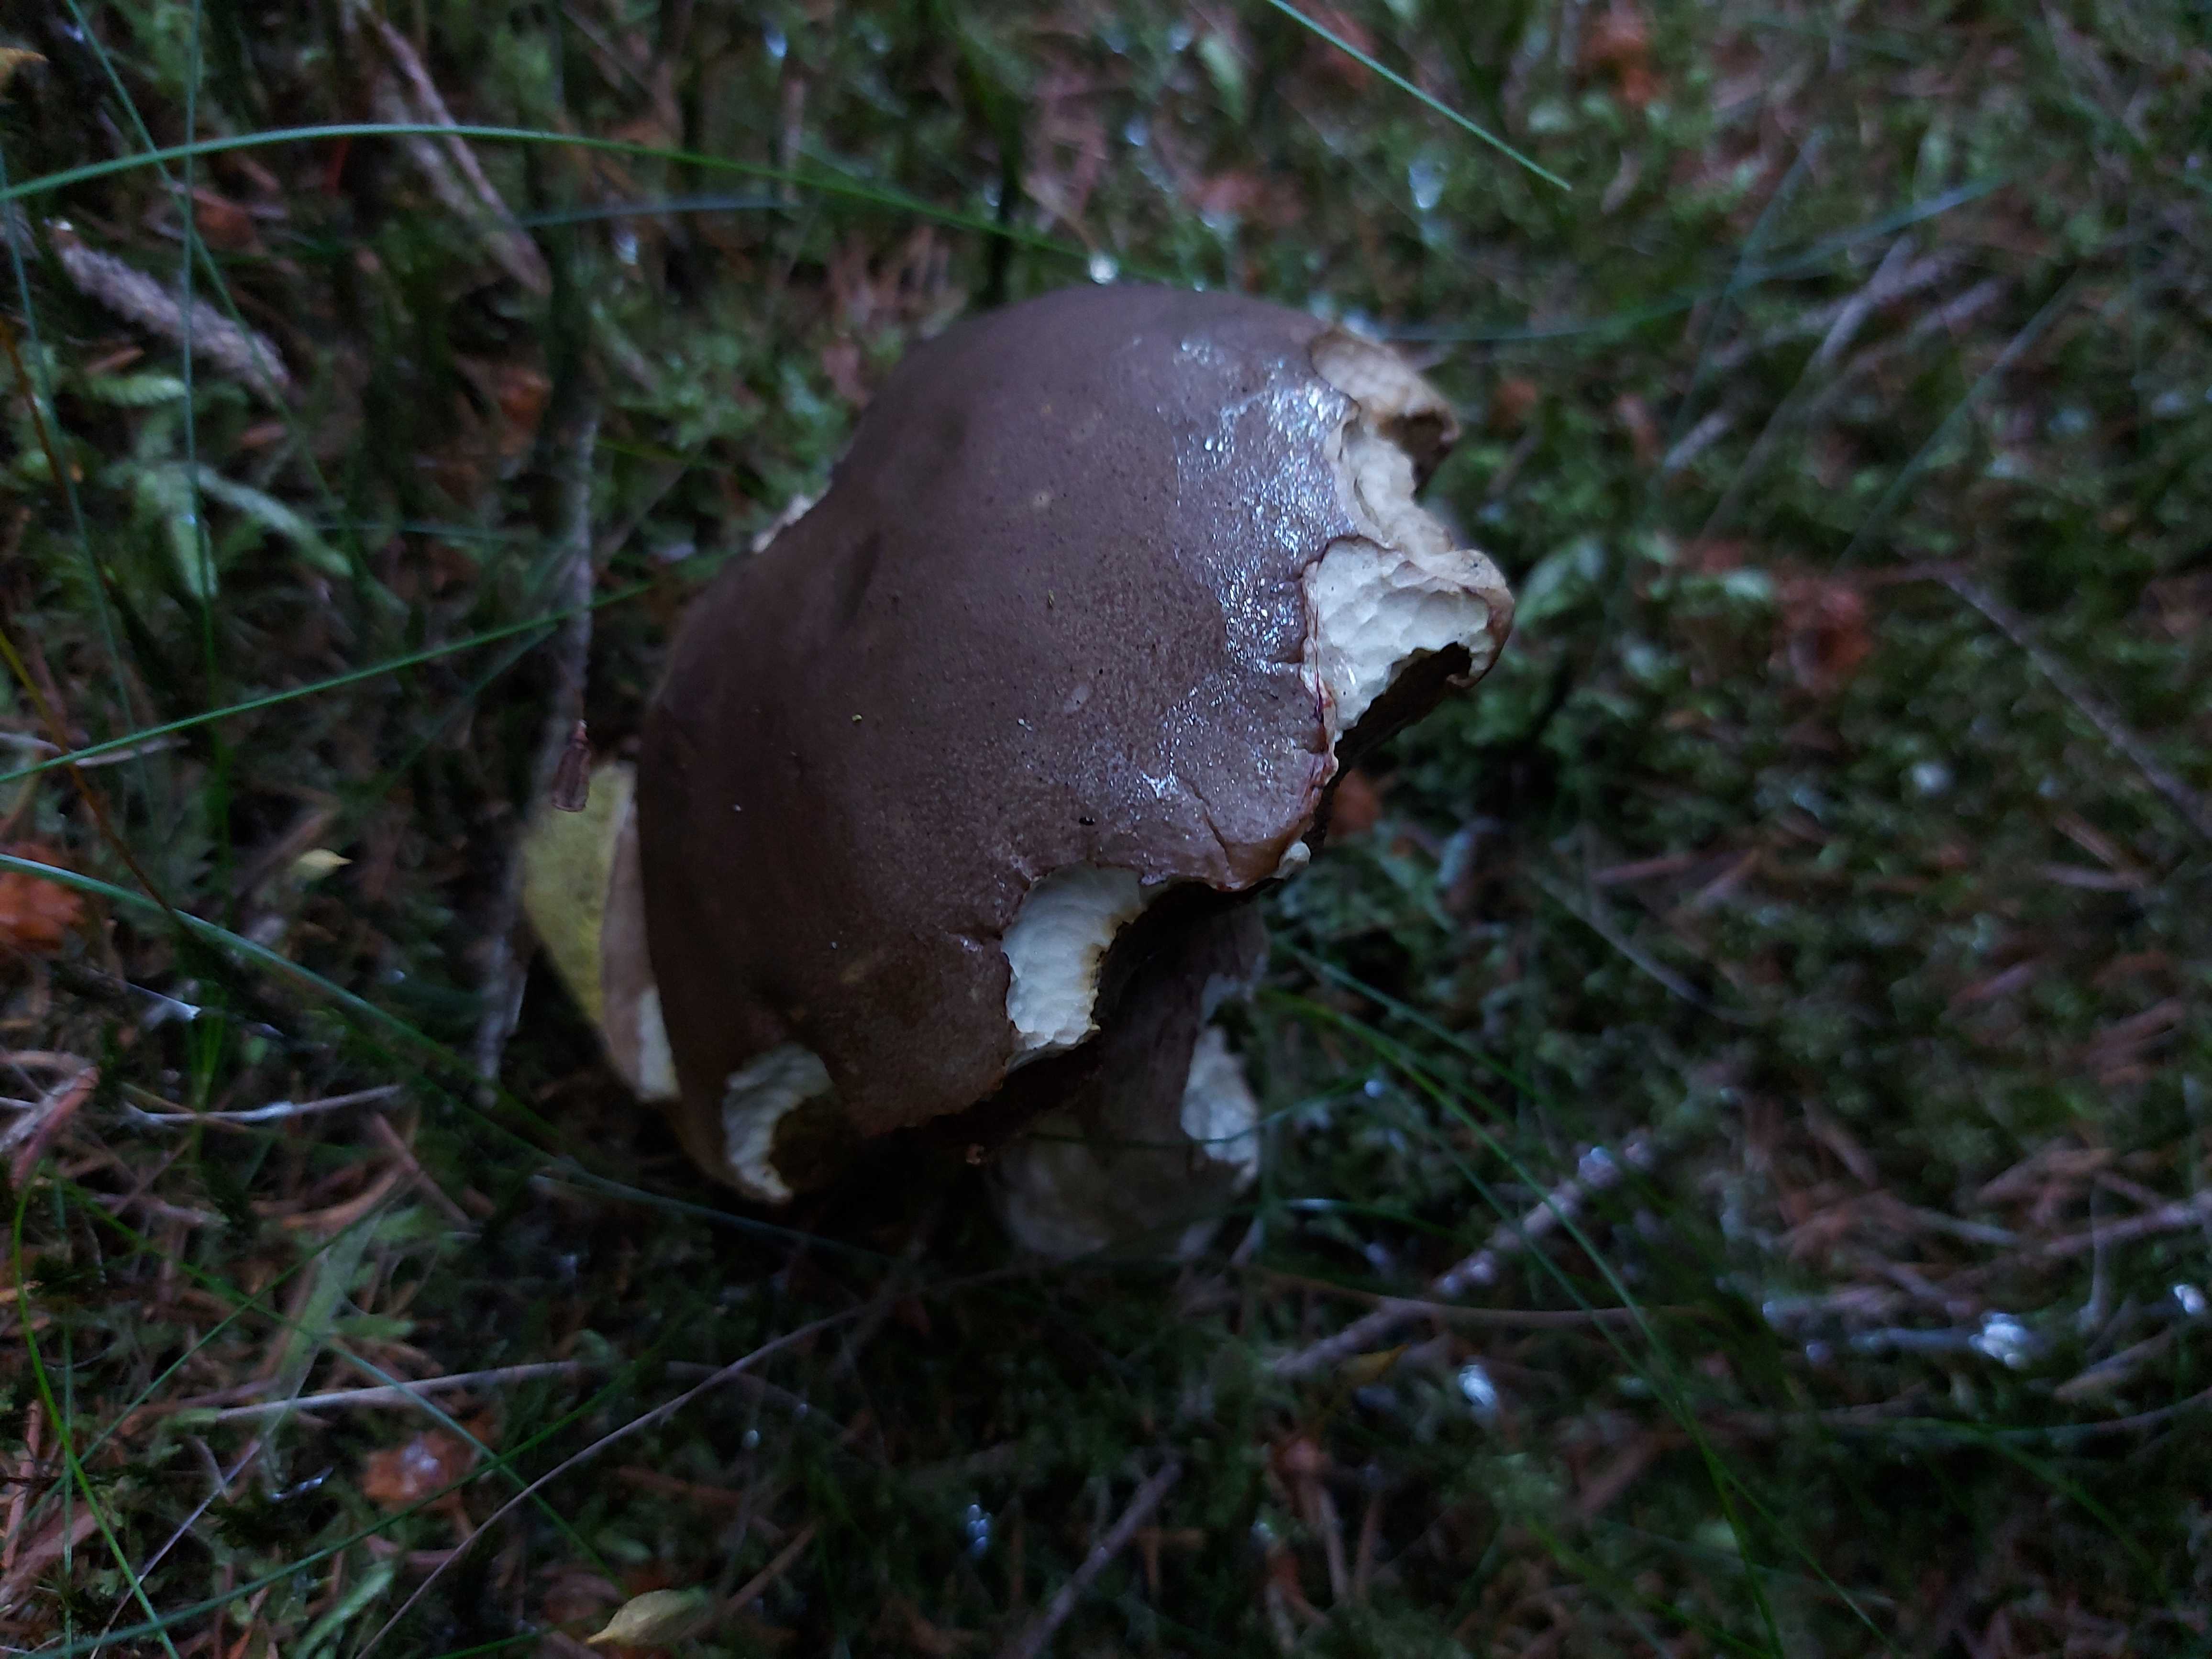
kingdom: Fungi
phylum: Basidiomycota
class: Agaricomycetes
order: Boletales
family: Boletaceae
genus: Boletus
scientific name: Boletus
